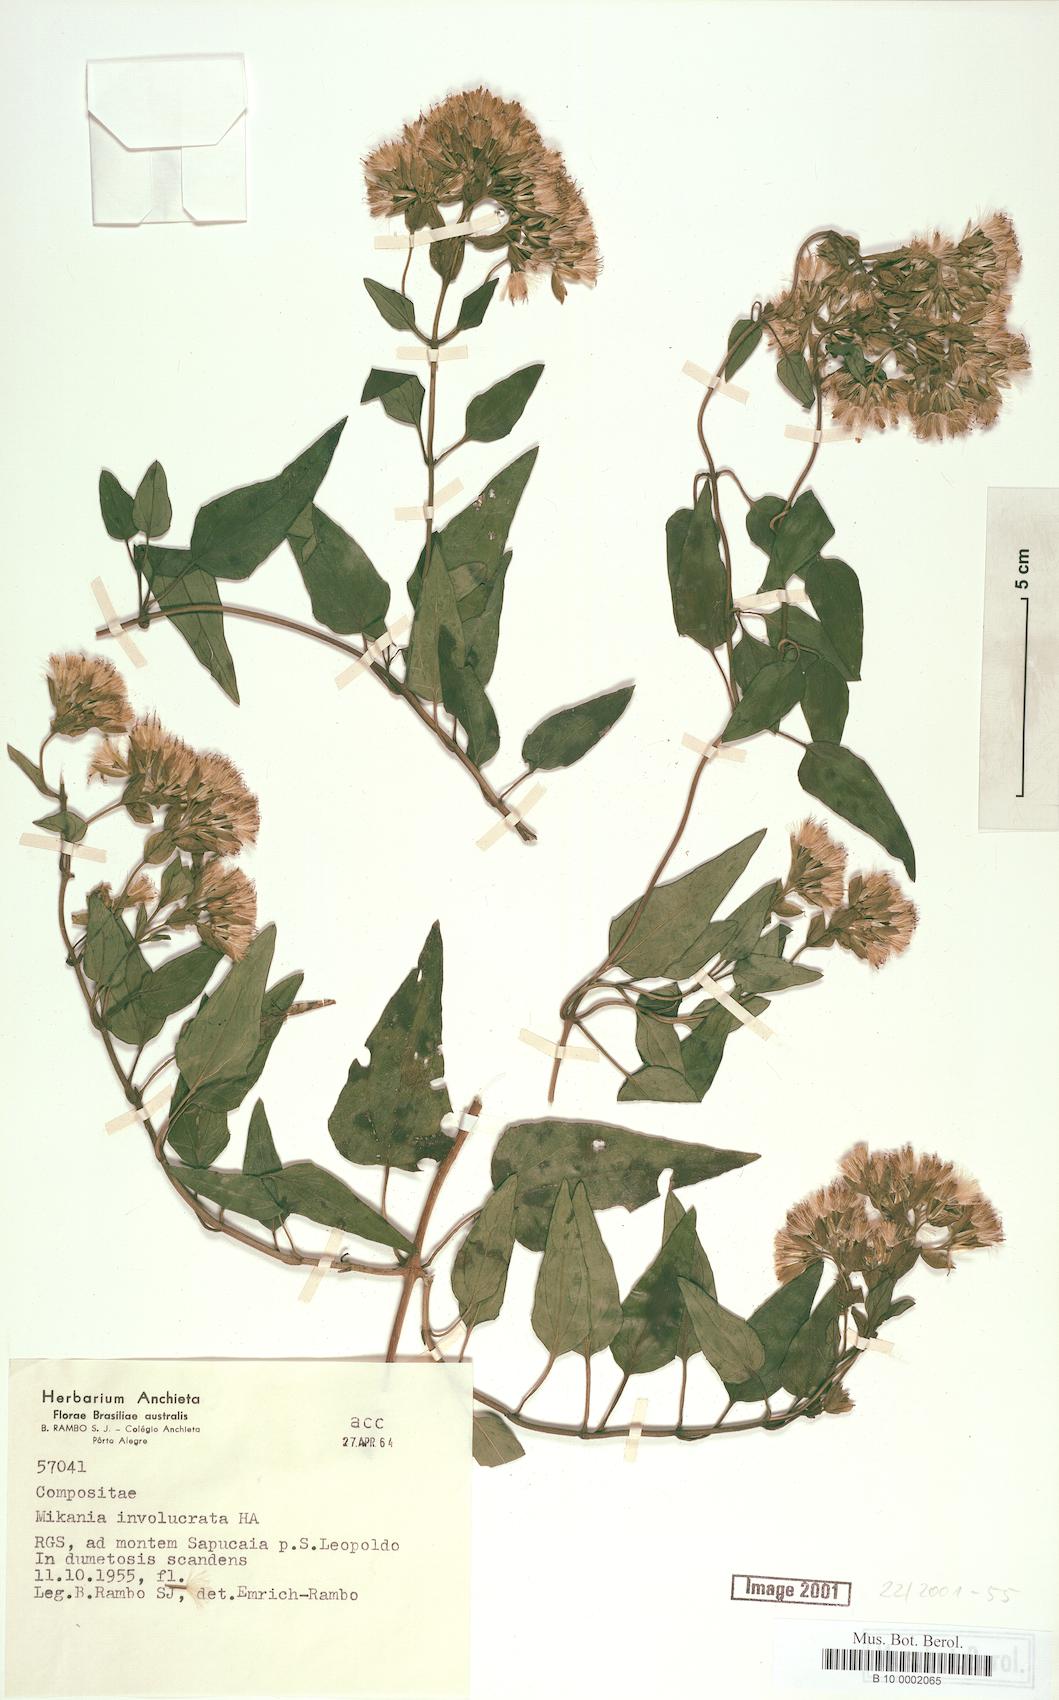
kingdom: Plantae
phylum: Tracheophyta
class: Magnoliopsida
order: Asterales
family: Asteraceae
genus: Mikania
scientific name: Mikania involucrata
